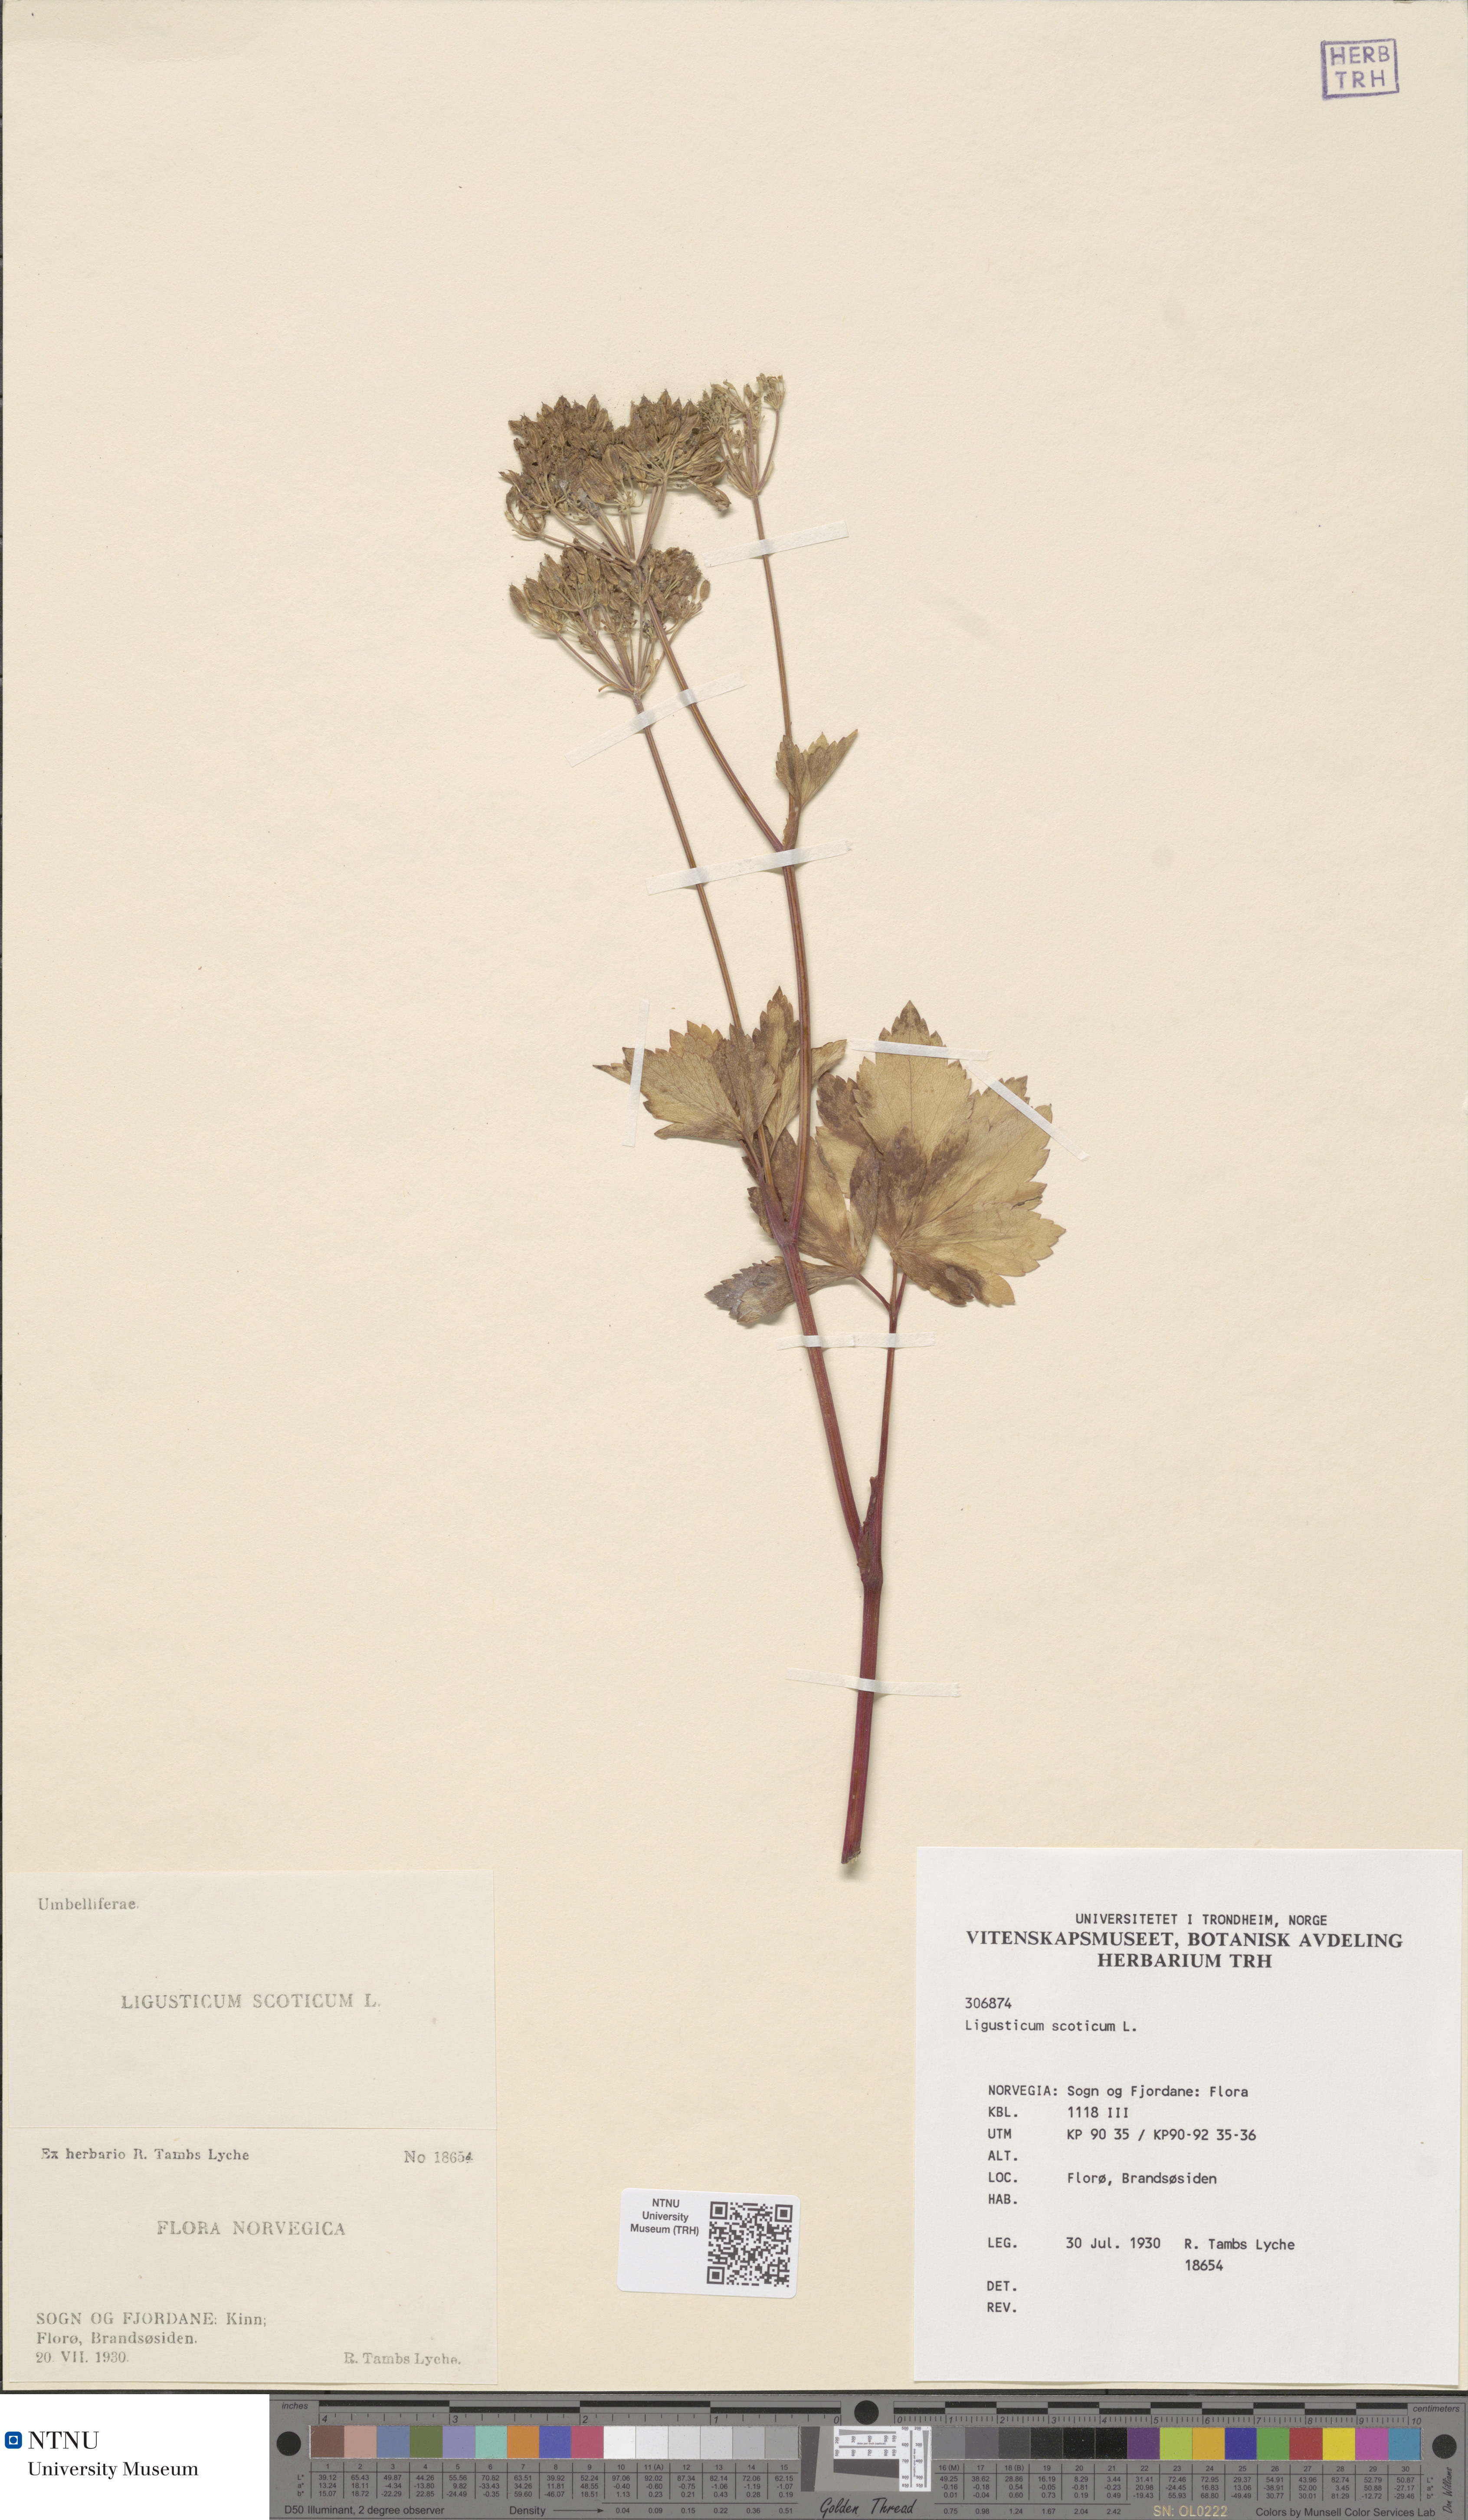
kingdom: Plantae
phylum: Tracheophyta
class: Magnoliopsida
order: Apiales
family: Apiaceae
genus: Ligusticum
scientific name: Ligusticum scothicum
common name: Beach lovage
